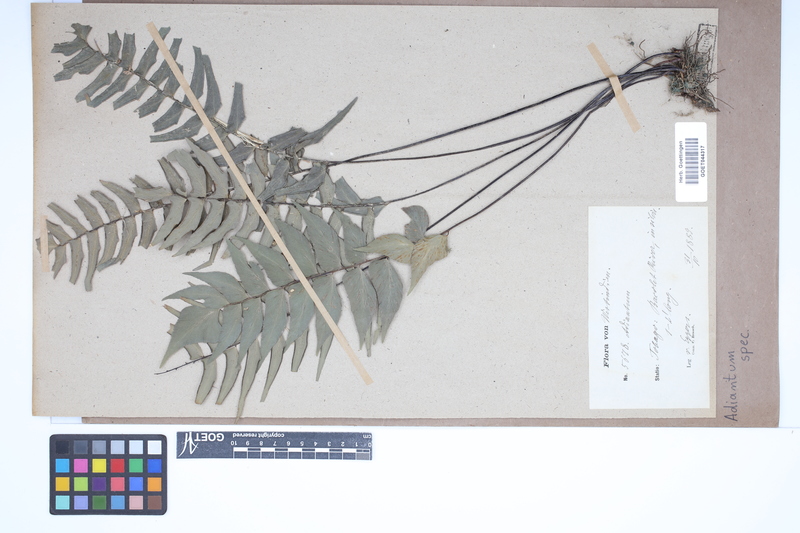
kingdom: Plantae
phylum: Tracheophyta
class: Polypodiopsida
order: Polypodiales
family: Pteridaceae
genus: Adiantum
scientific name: Adiantum
